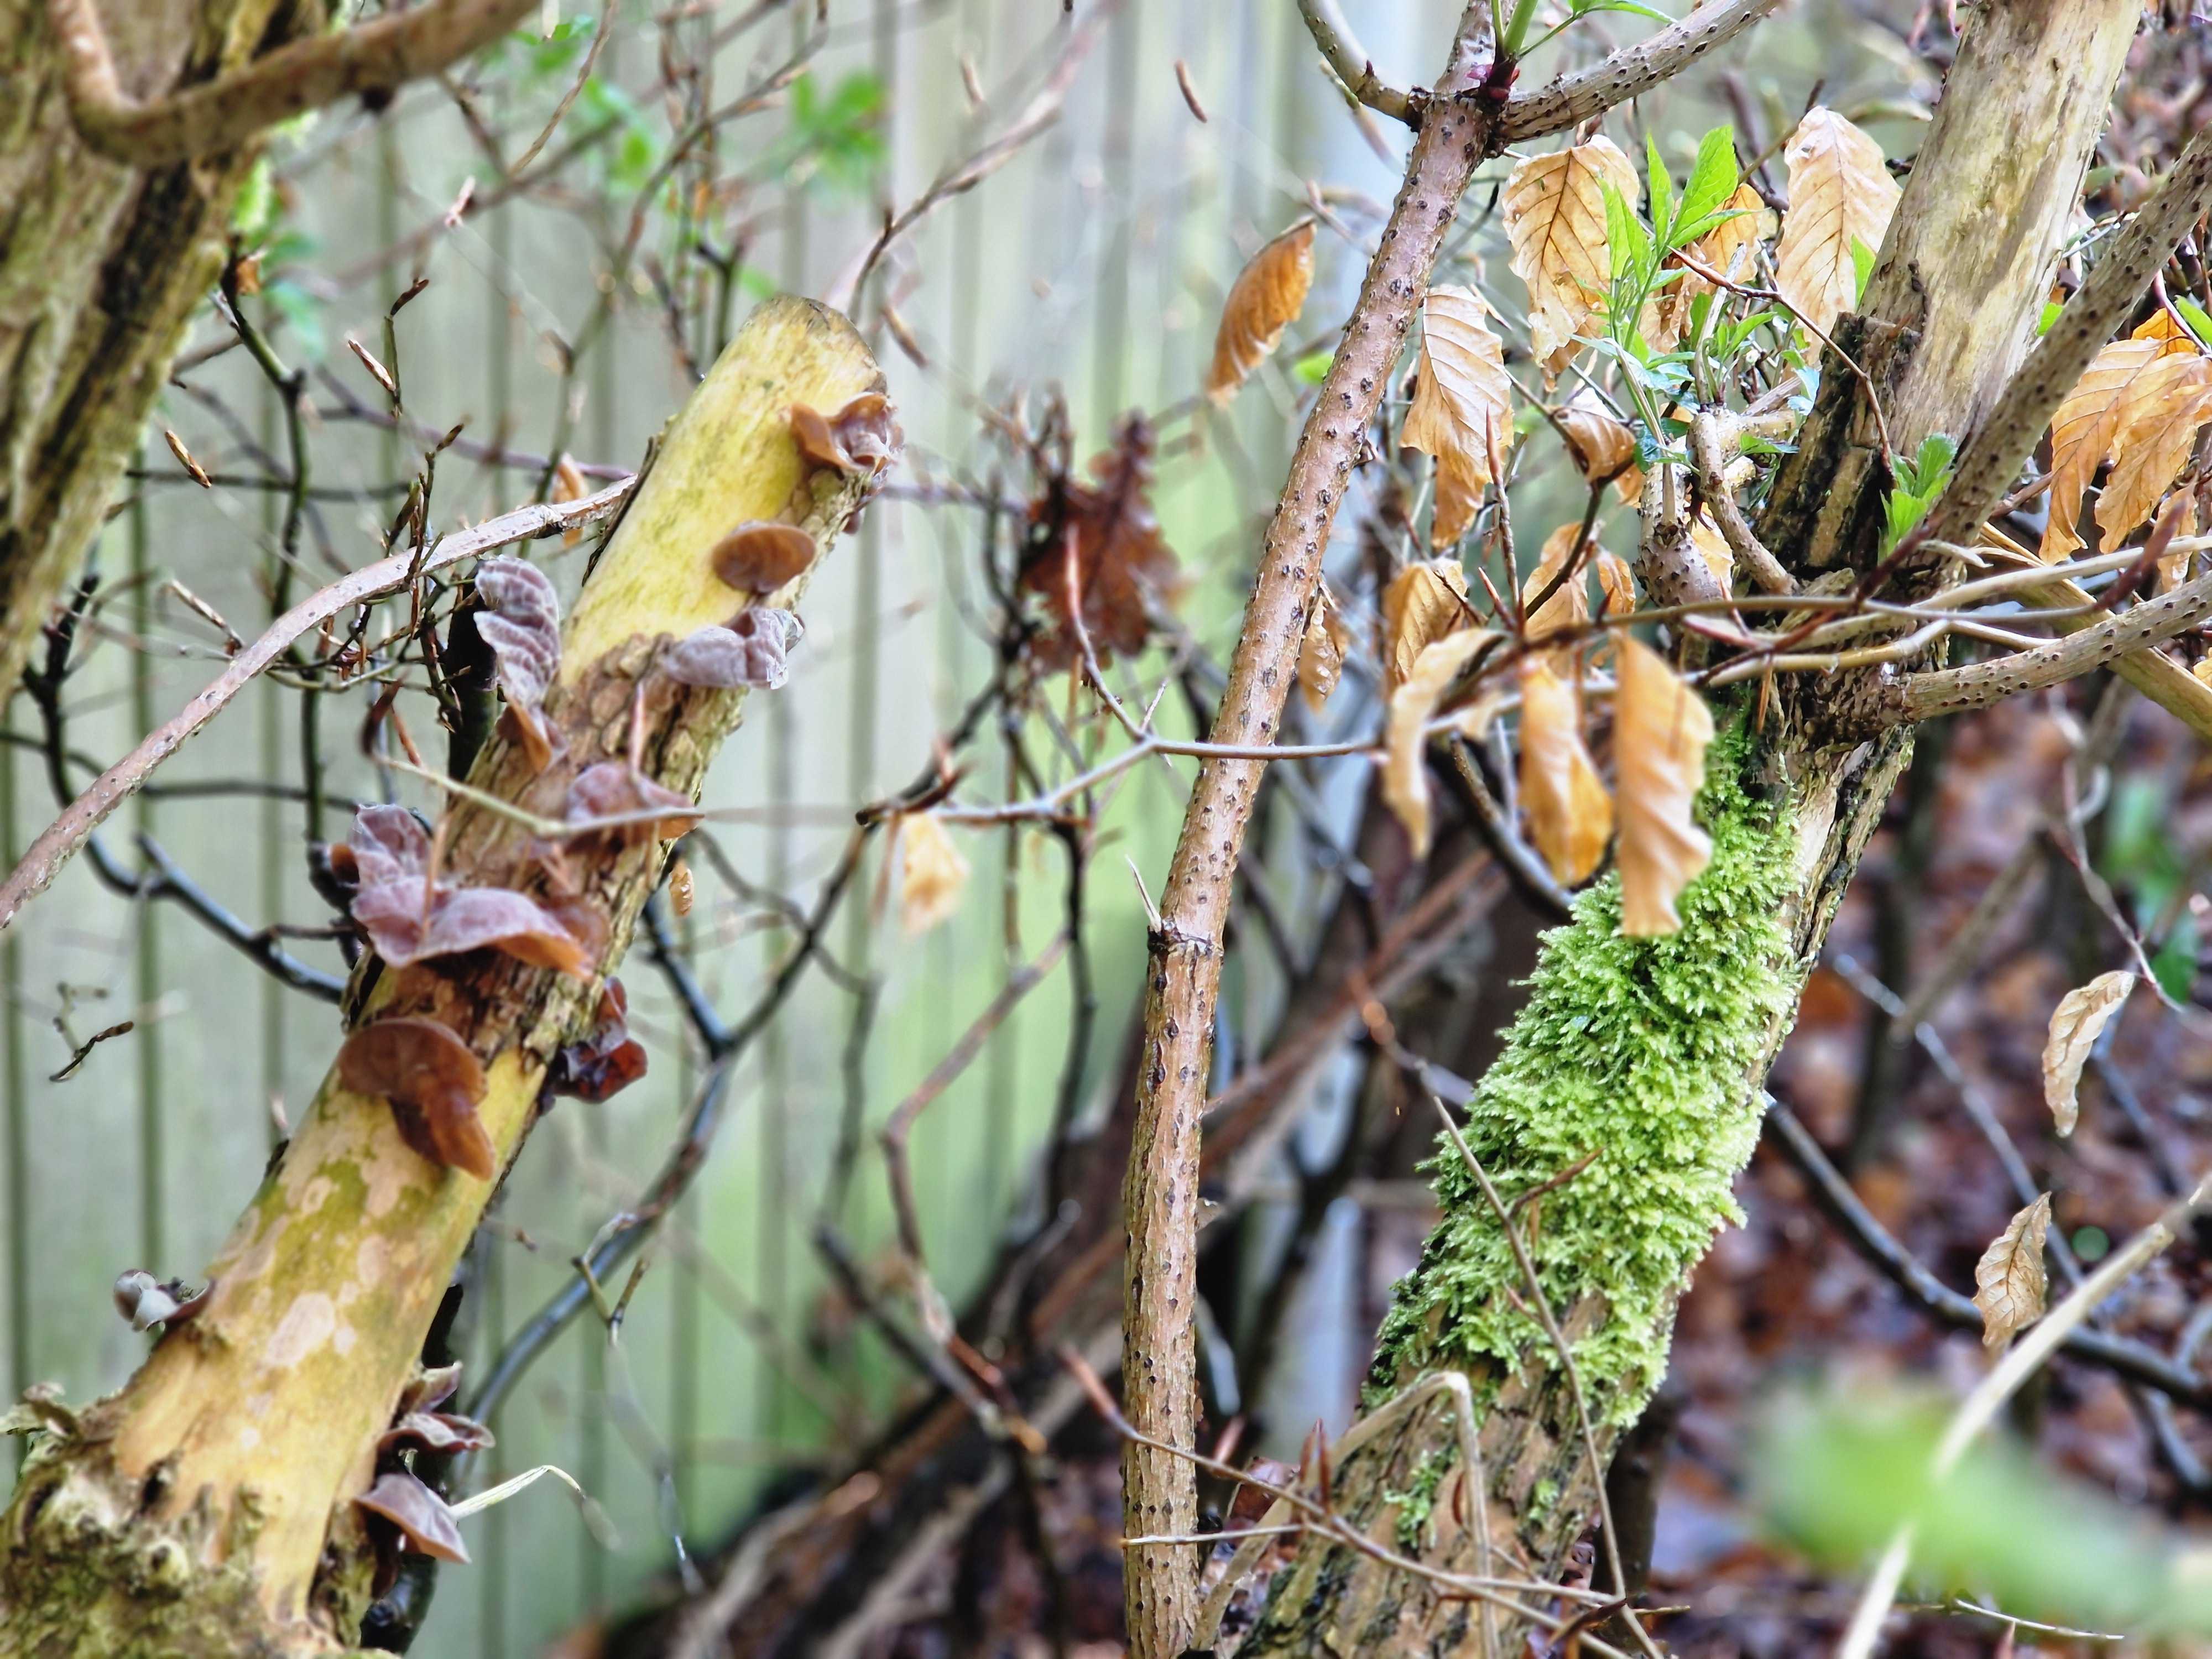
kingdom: Fungi
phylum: Basidiomycota
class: Agaricomycetes
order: Auriculariales
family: Auriculariaceae
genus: Auricularia
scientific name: Auricularia auricula-judae
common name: almindelig judasøre
